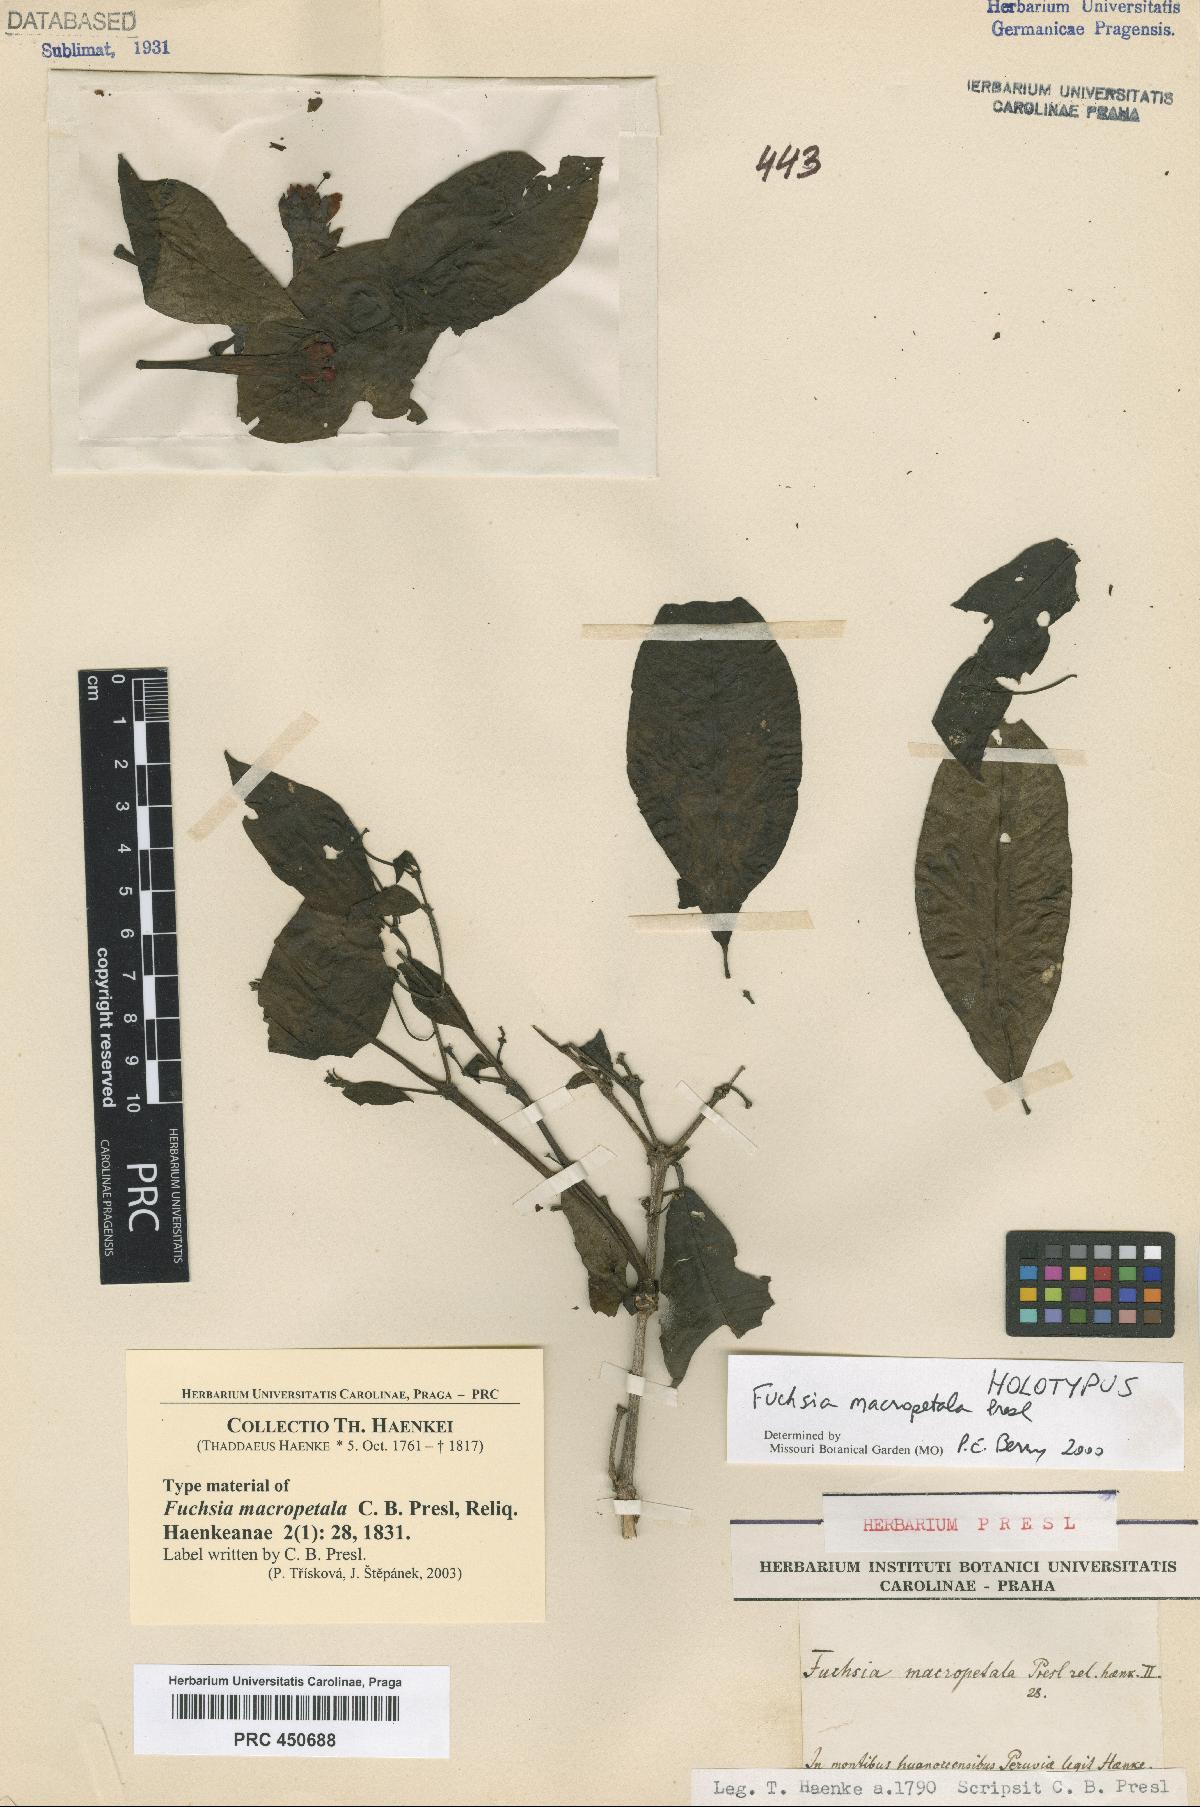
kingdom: Plantae
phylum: Tracheophyta
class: Magnoliopsida
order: Myrtales
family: Onagraceae
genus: Fuchsia
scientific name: Fuchsia macropetala
